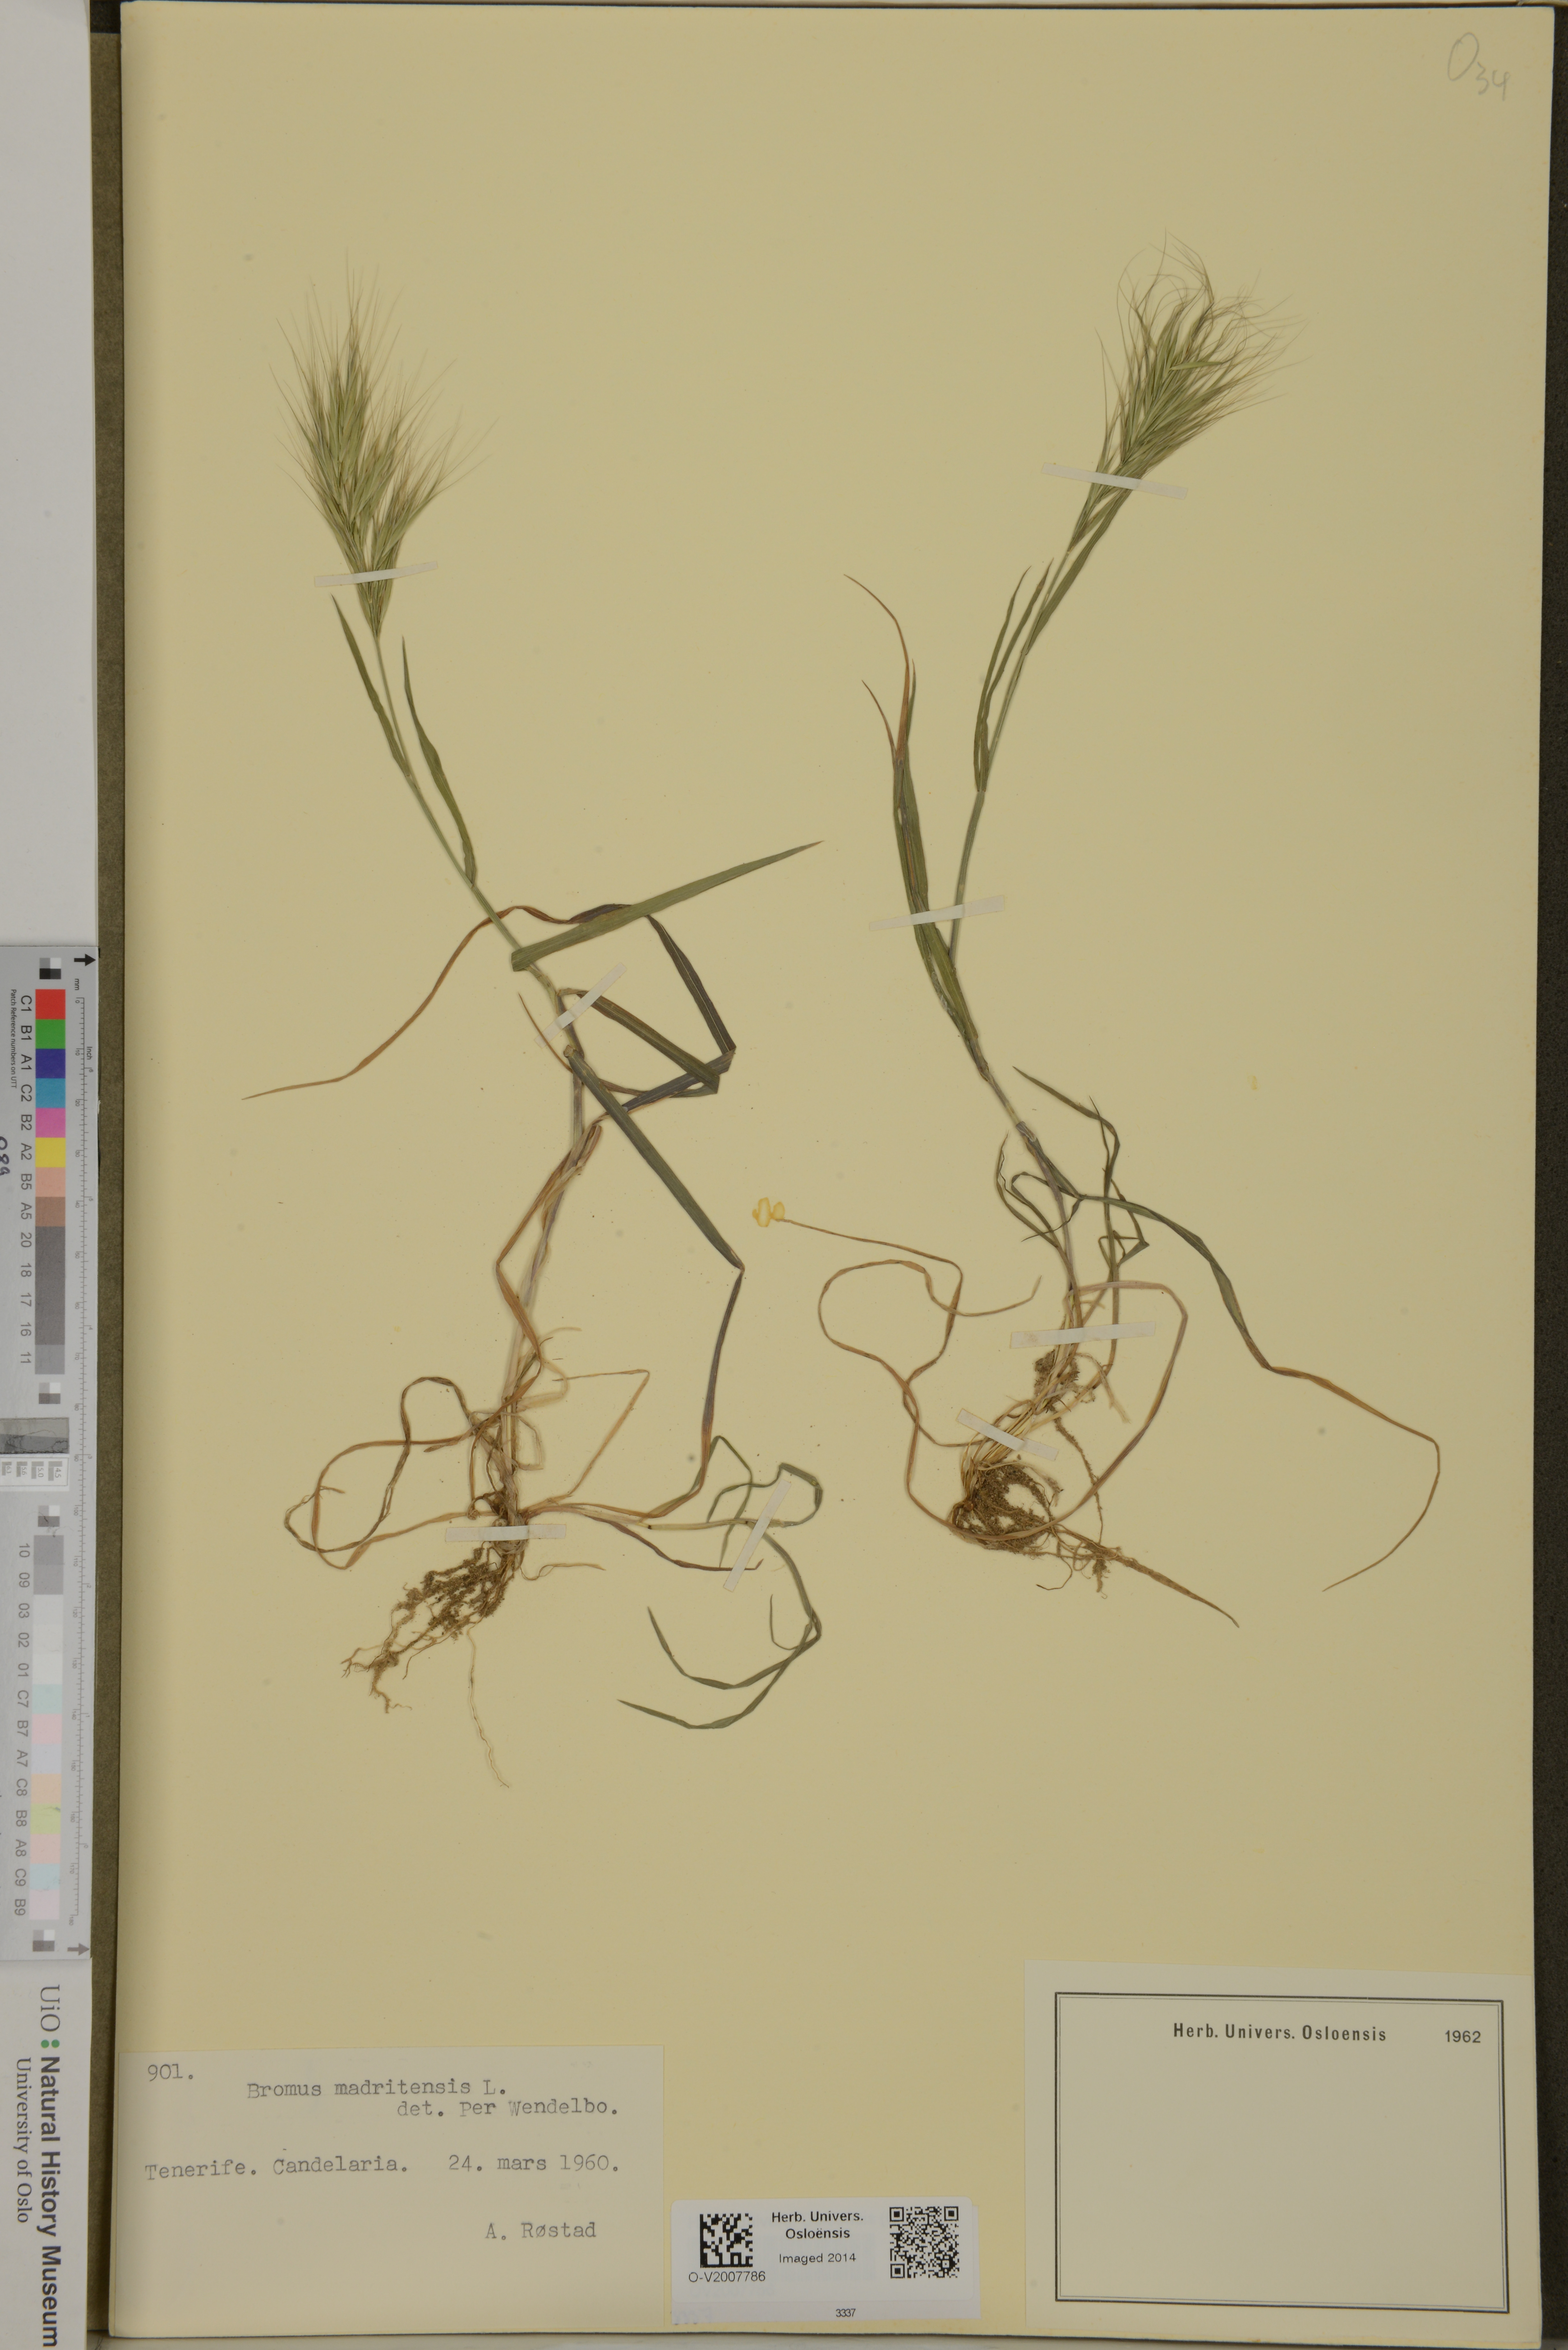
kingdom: Plantae
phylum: Tracheophyta
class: Liliopsida
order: Poales
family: Poaceae
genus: Bromus
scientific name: Bromus madritensis
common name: Compact brome
